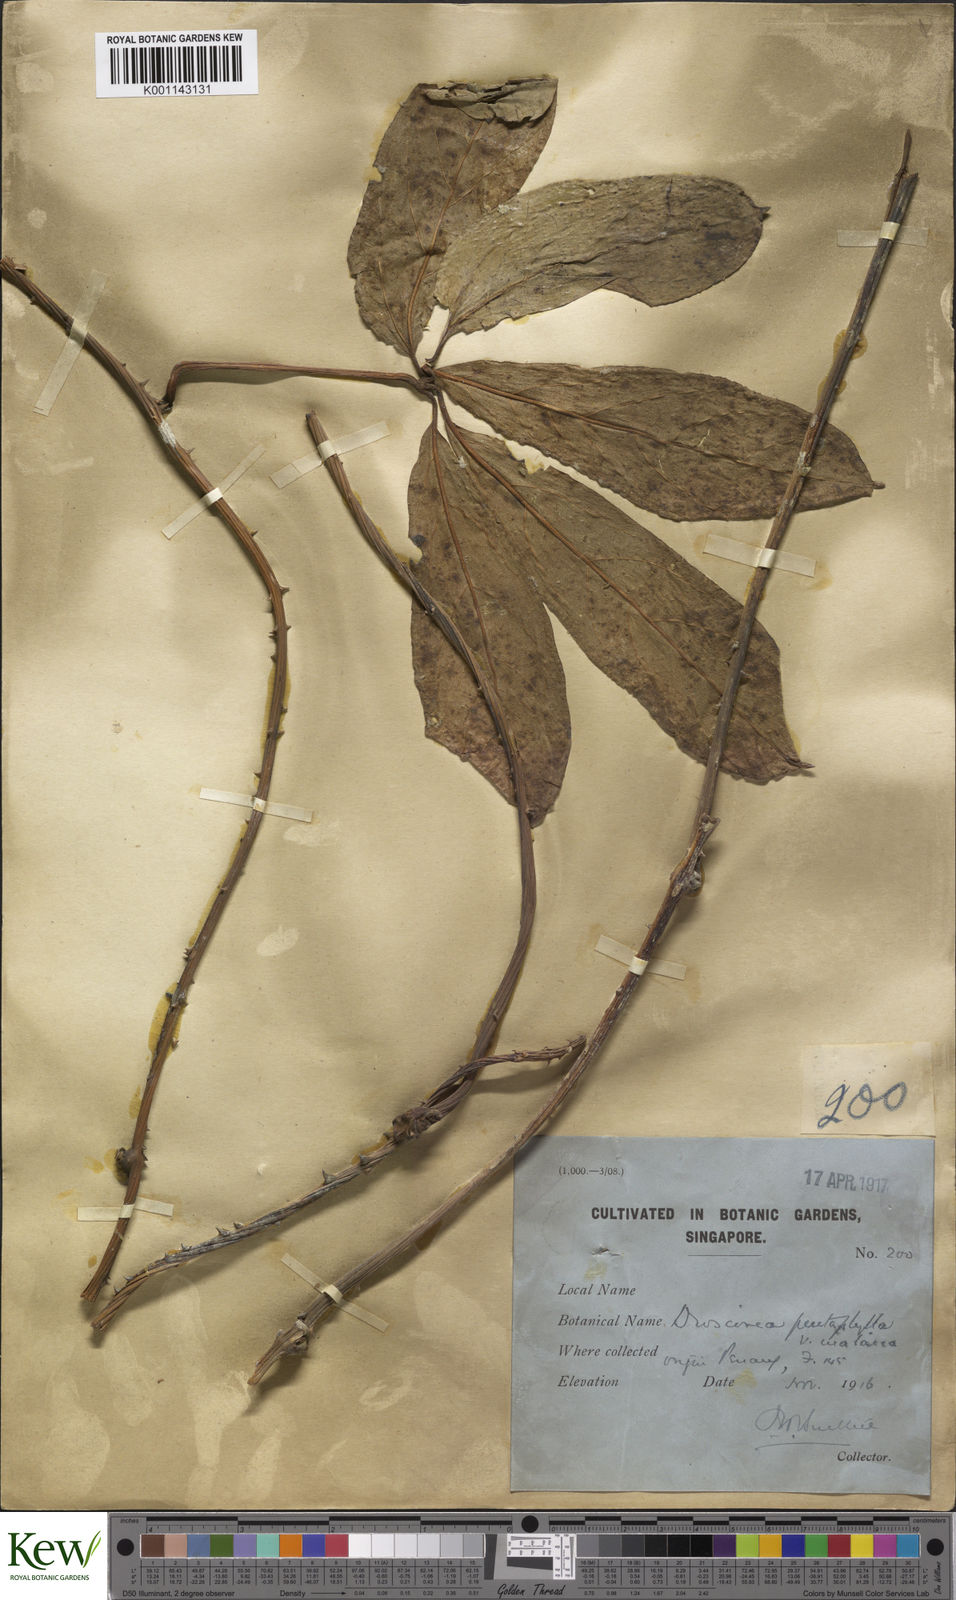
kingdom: Plantae
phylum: Tracheophyta
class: Liliopsida
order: Dioscoreales
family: Dioscoreaceae
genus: Dioscorea
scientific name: Dioscorea pentaphylla
